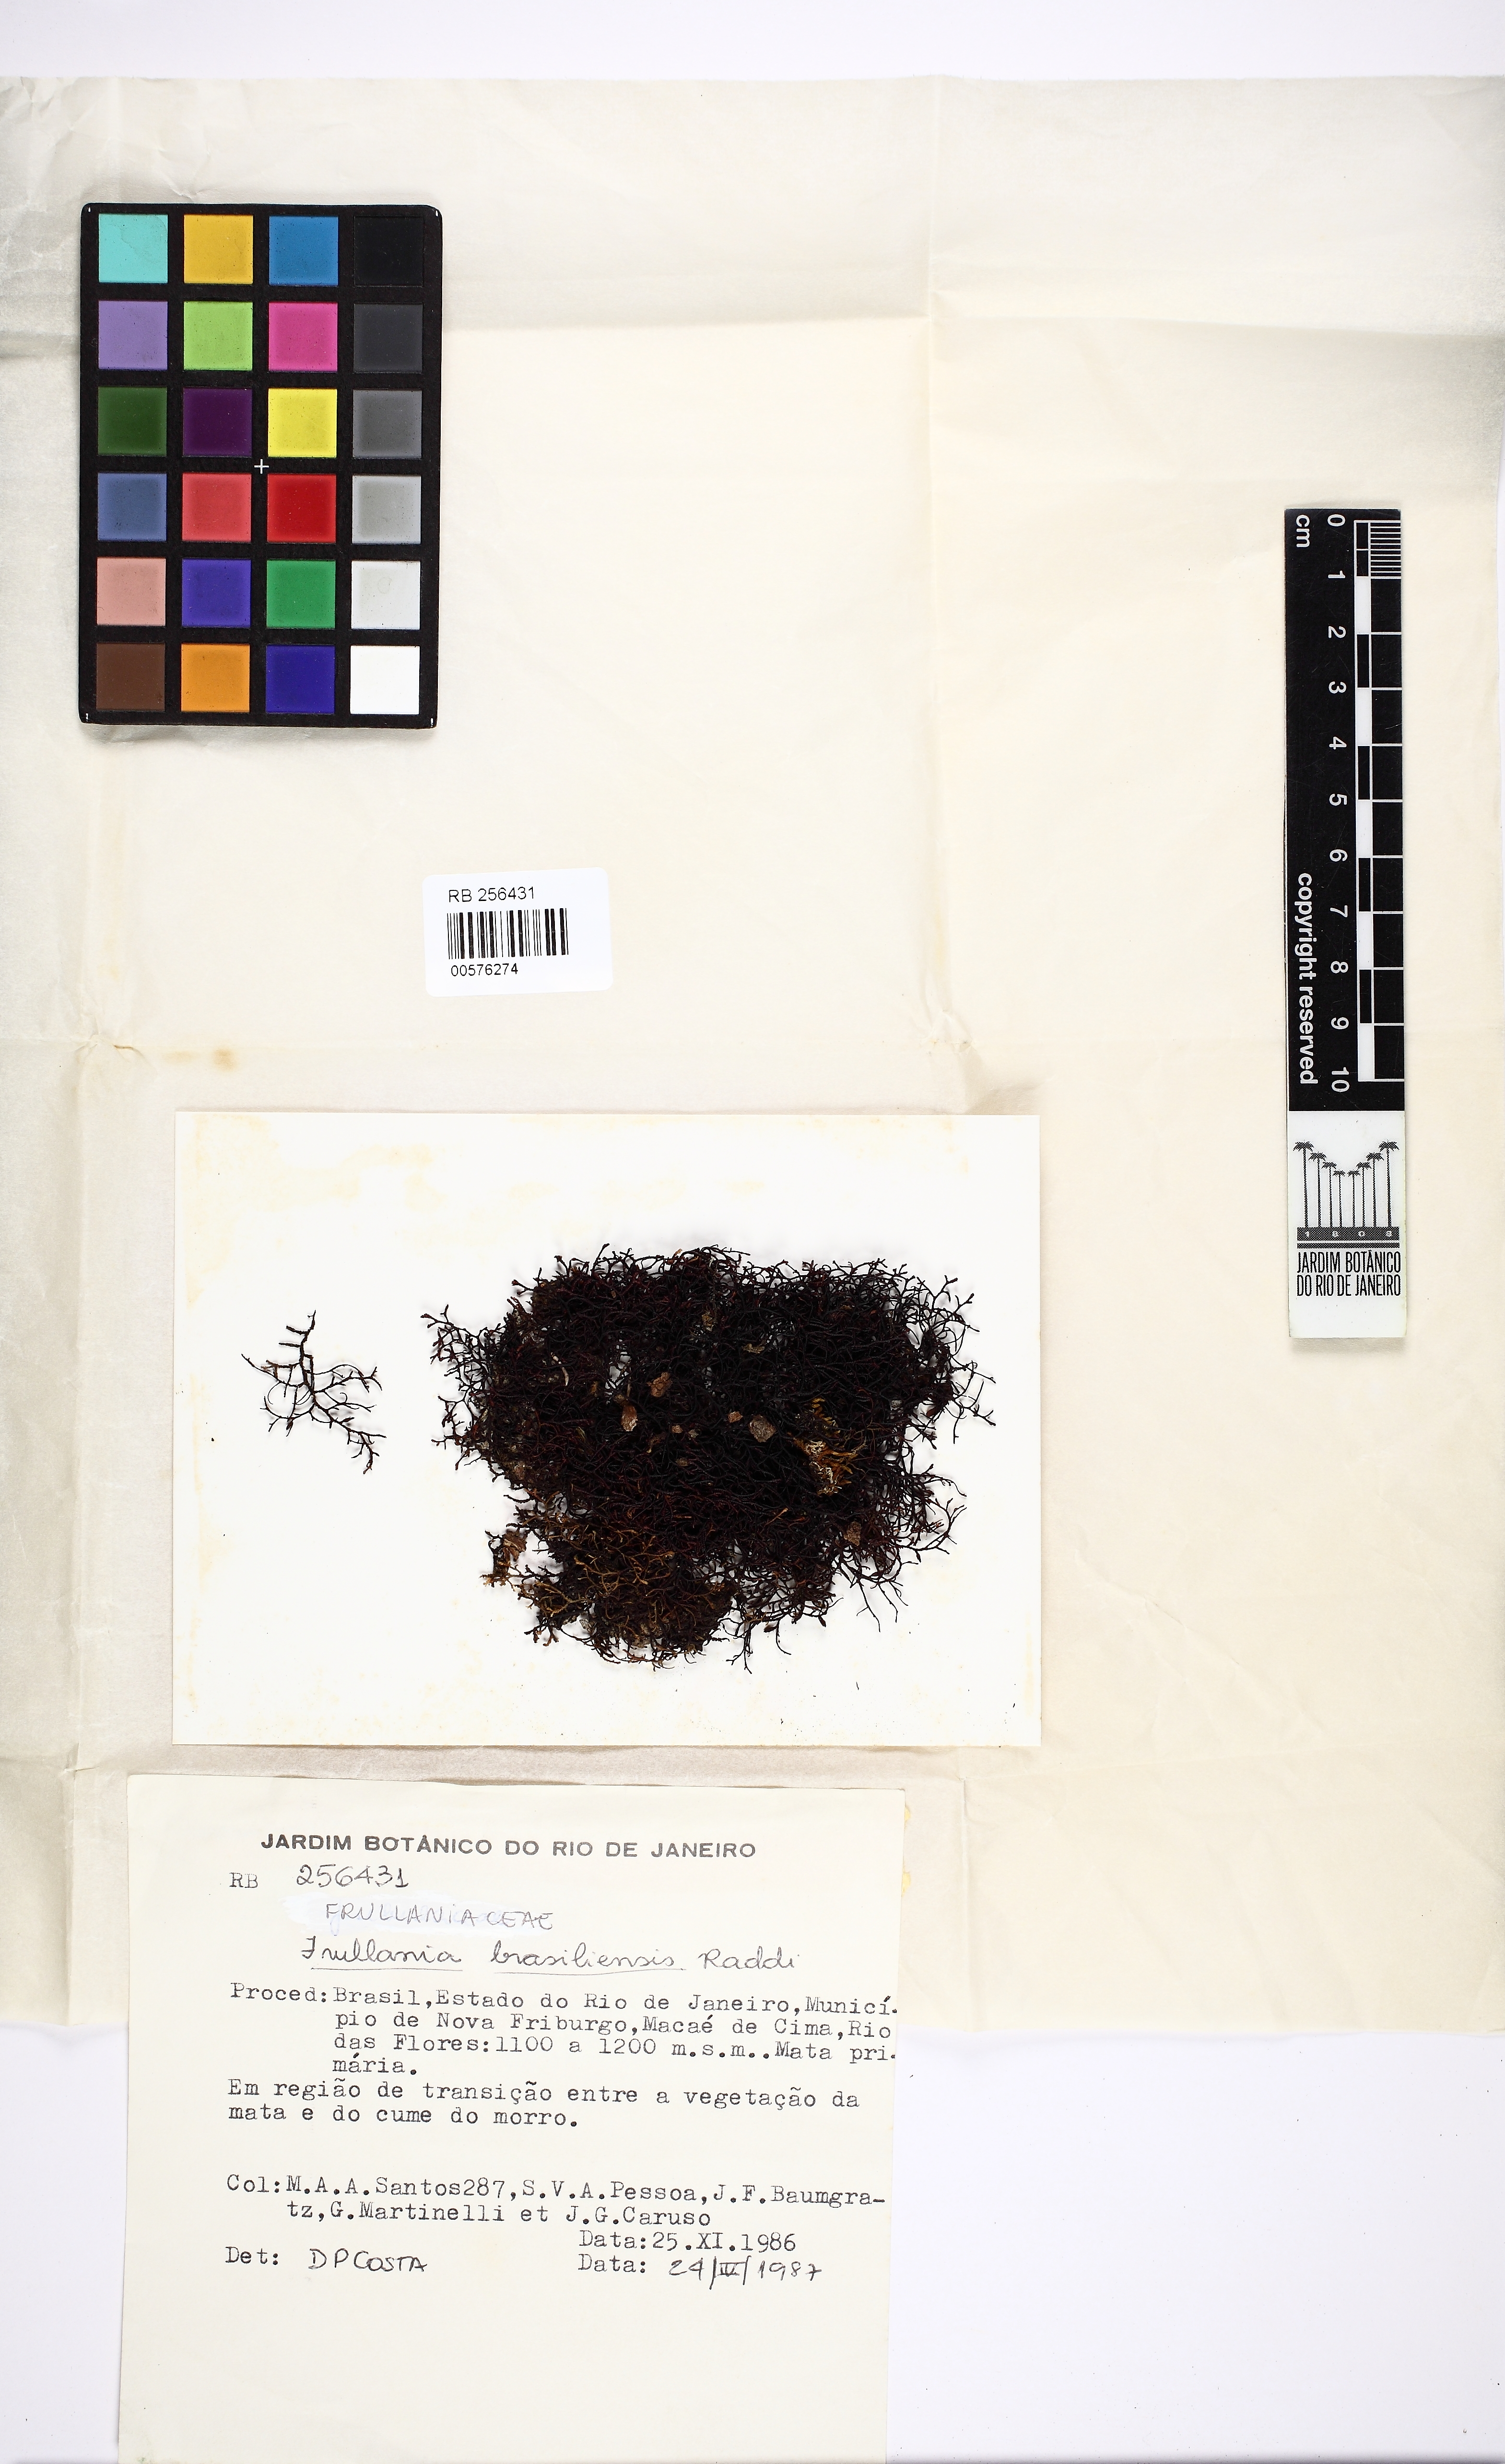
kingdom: Plantae
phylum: Marchantiophyta
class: Jungermanniopsida
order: Porellales
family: Frullaniaceae
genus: Frullania
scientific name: Frullania brasiliensis
